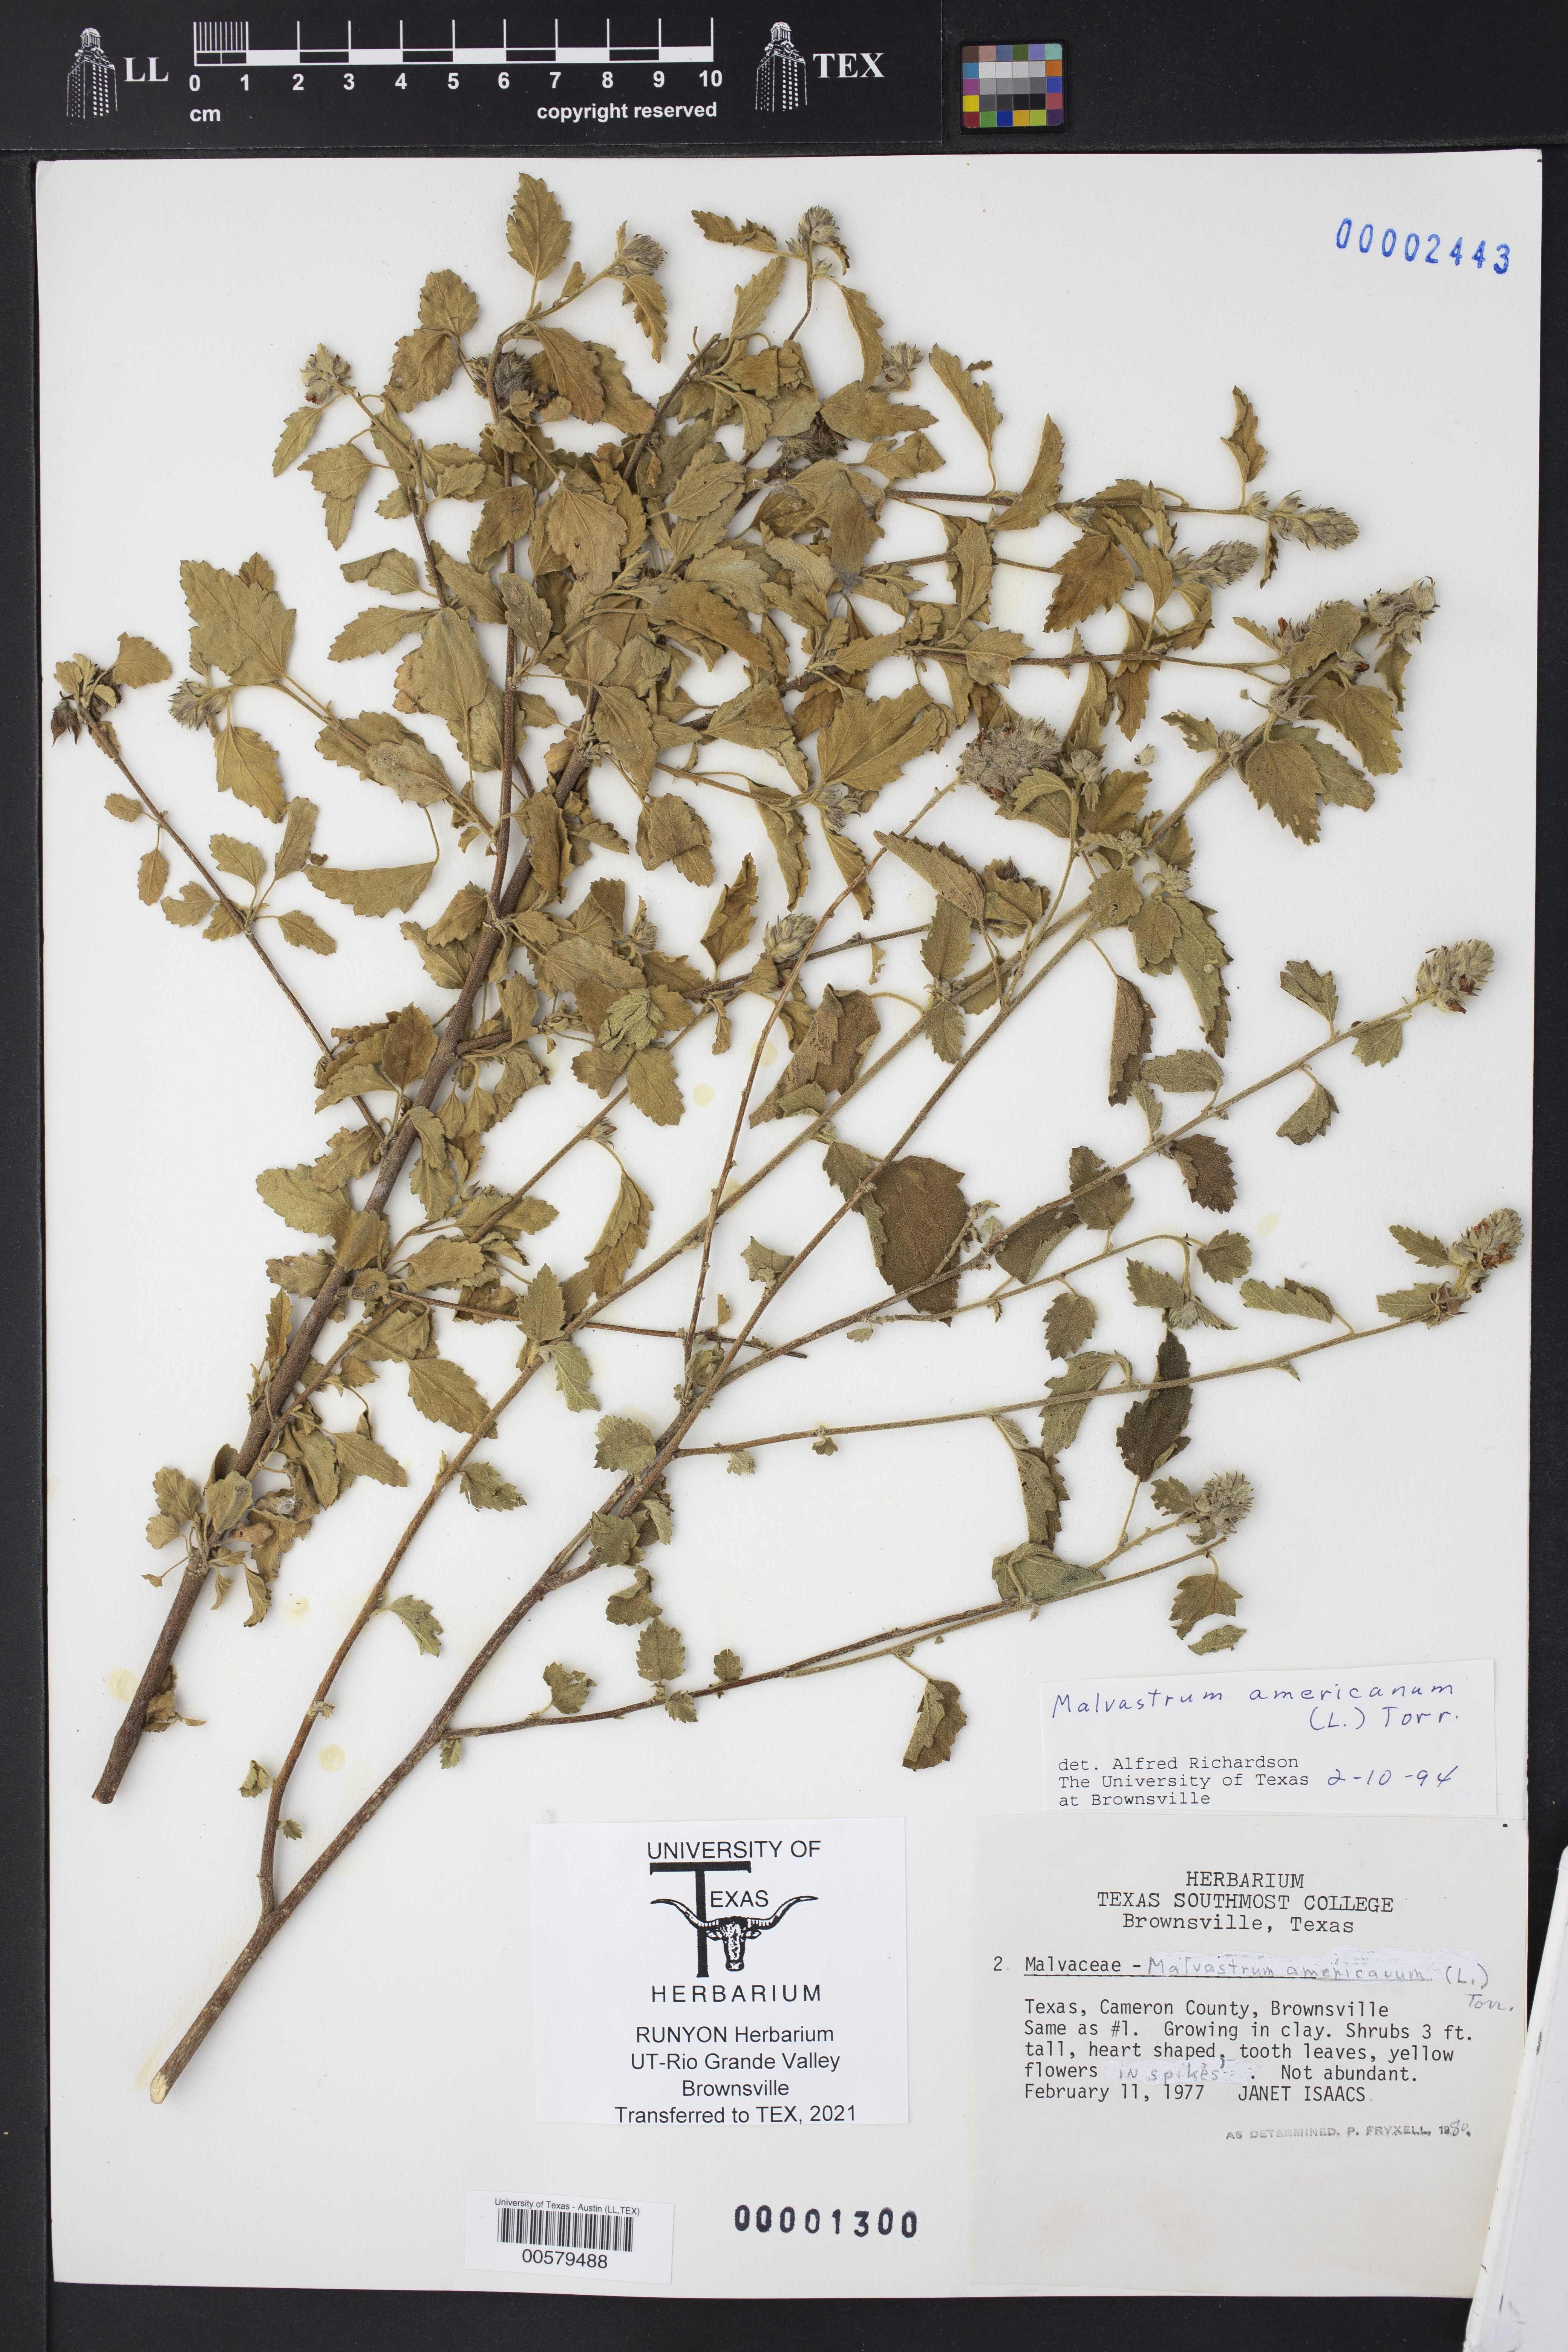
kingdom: Plantae
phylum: Tracheophyta
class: Magnoliopsida
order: Malvales
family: Malvaceae
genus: Malvastrum
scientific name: Malvastrum americanum
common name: Spiked malvastrum
